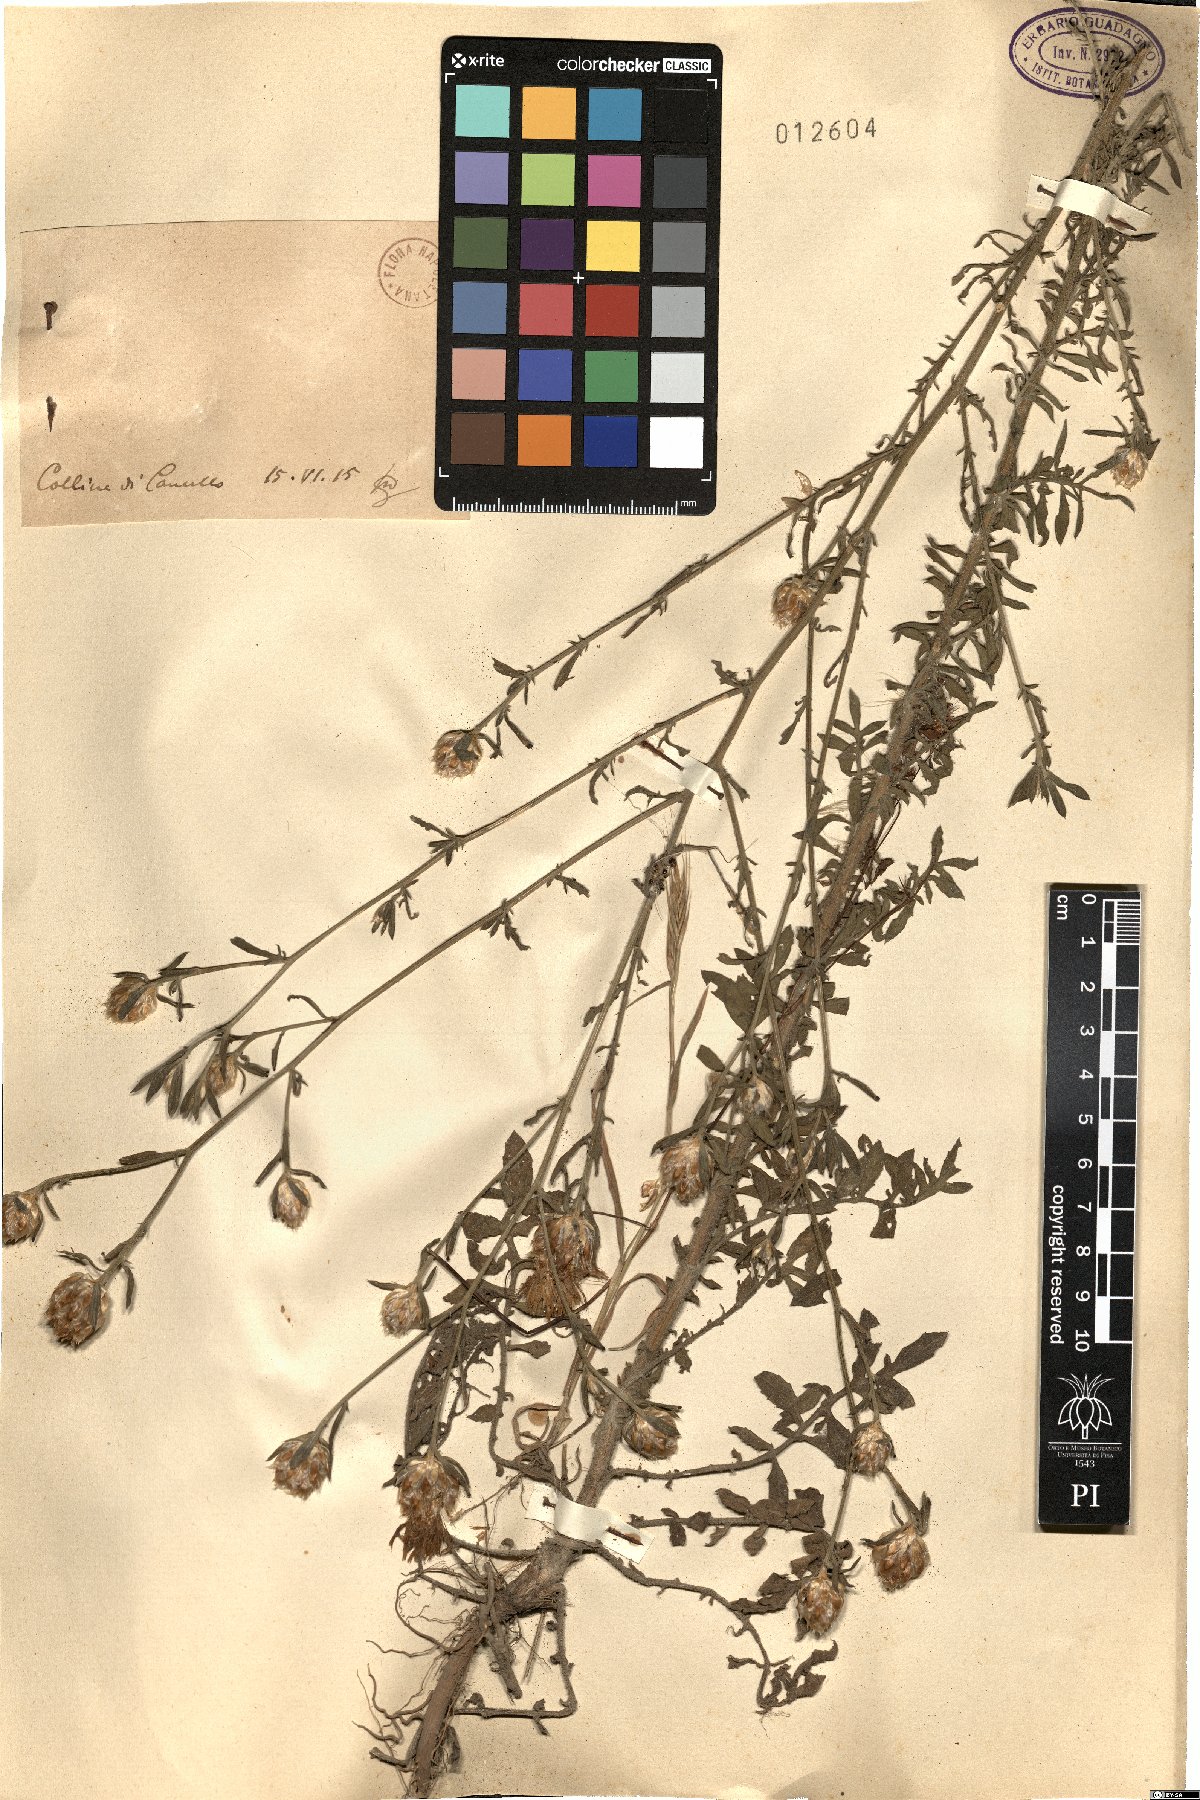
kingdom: Plantae
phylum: Tracheophyta
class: Magnoliopsida
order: Asterales
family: Asteraceae
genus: Centaurea
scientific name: Centaurea
